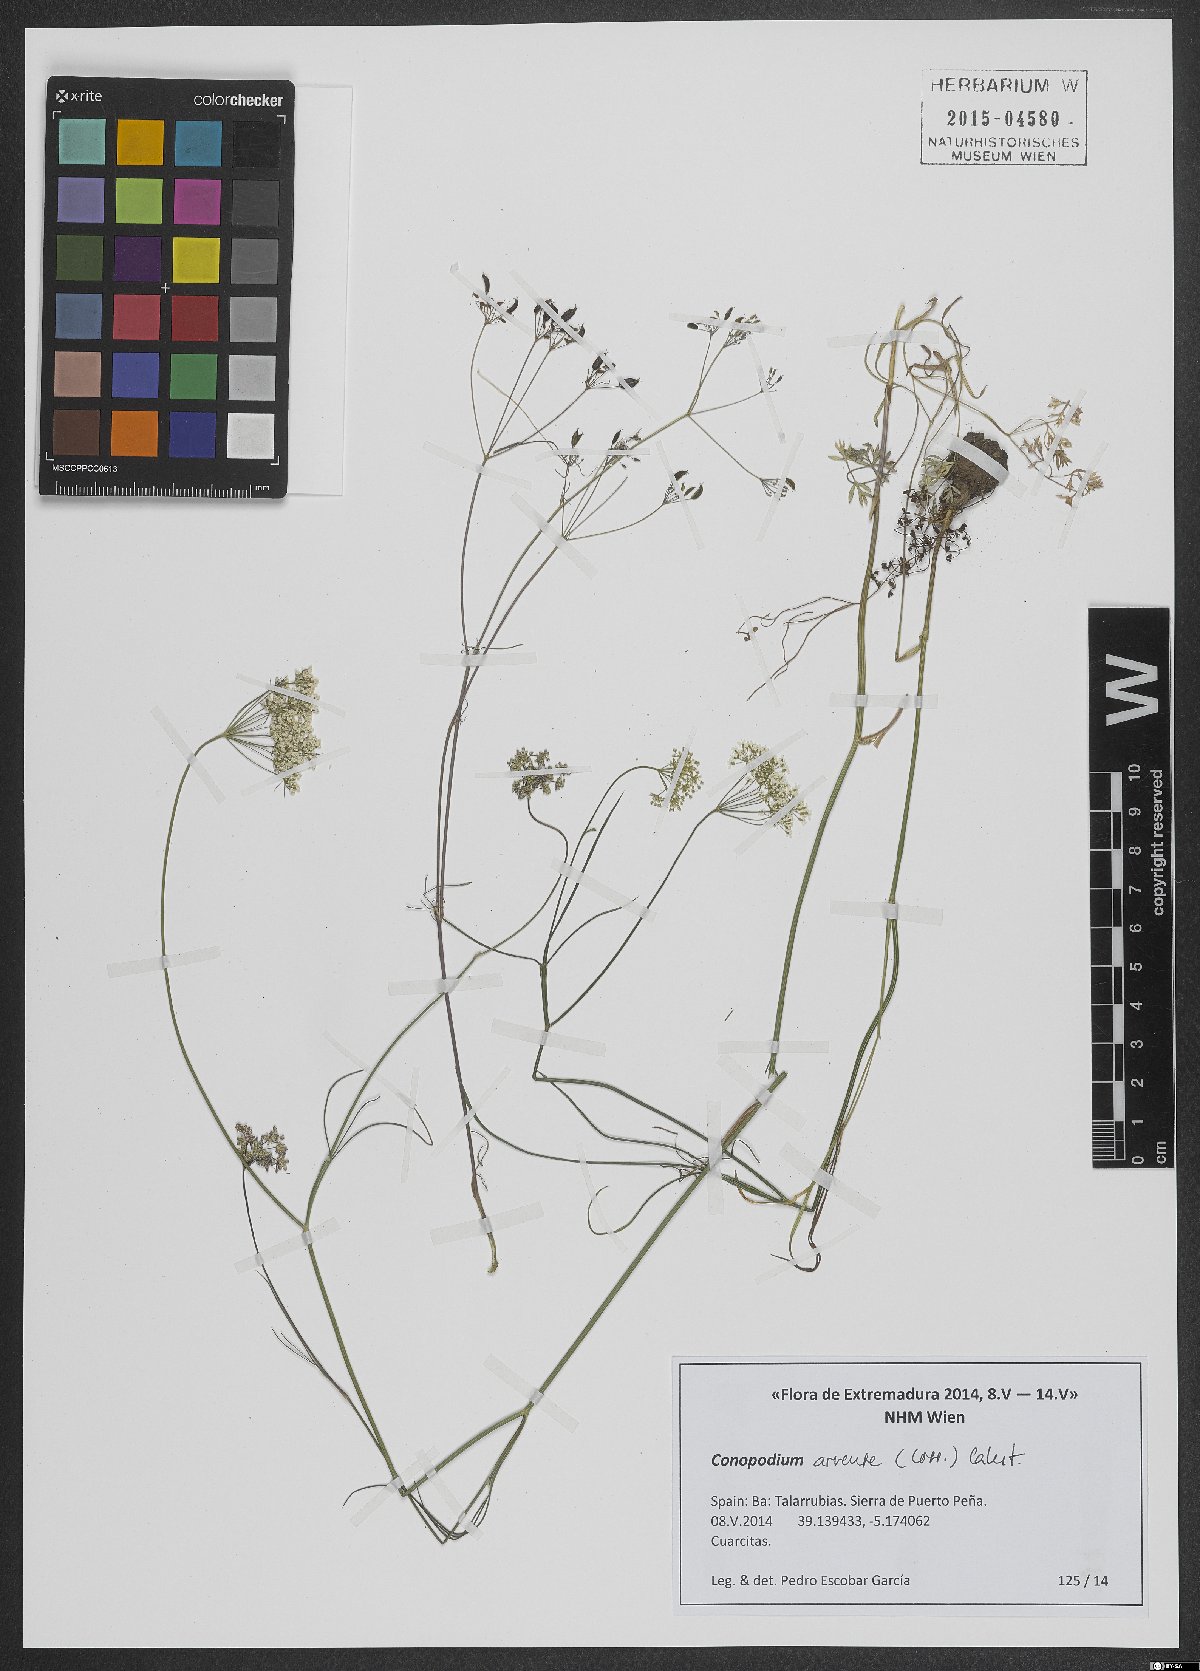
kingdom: Plantae
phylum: Tracheophyta
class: Magnoliopsida
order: Apiales
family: Apiaceae
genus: Conopodium
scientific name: Conopodium arvense
